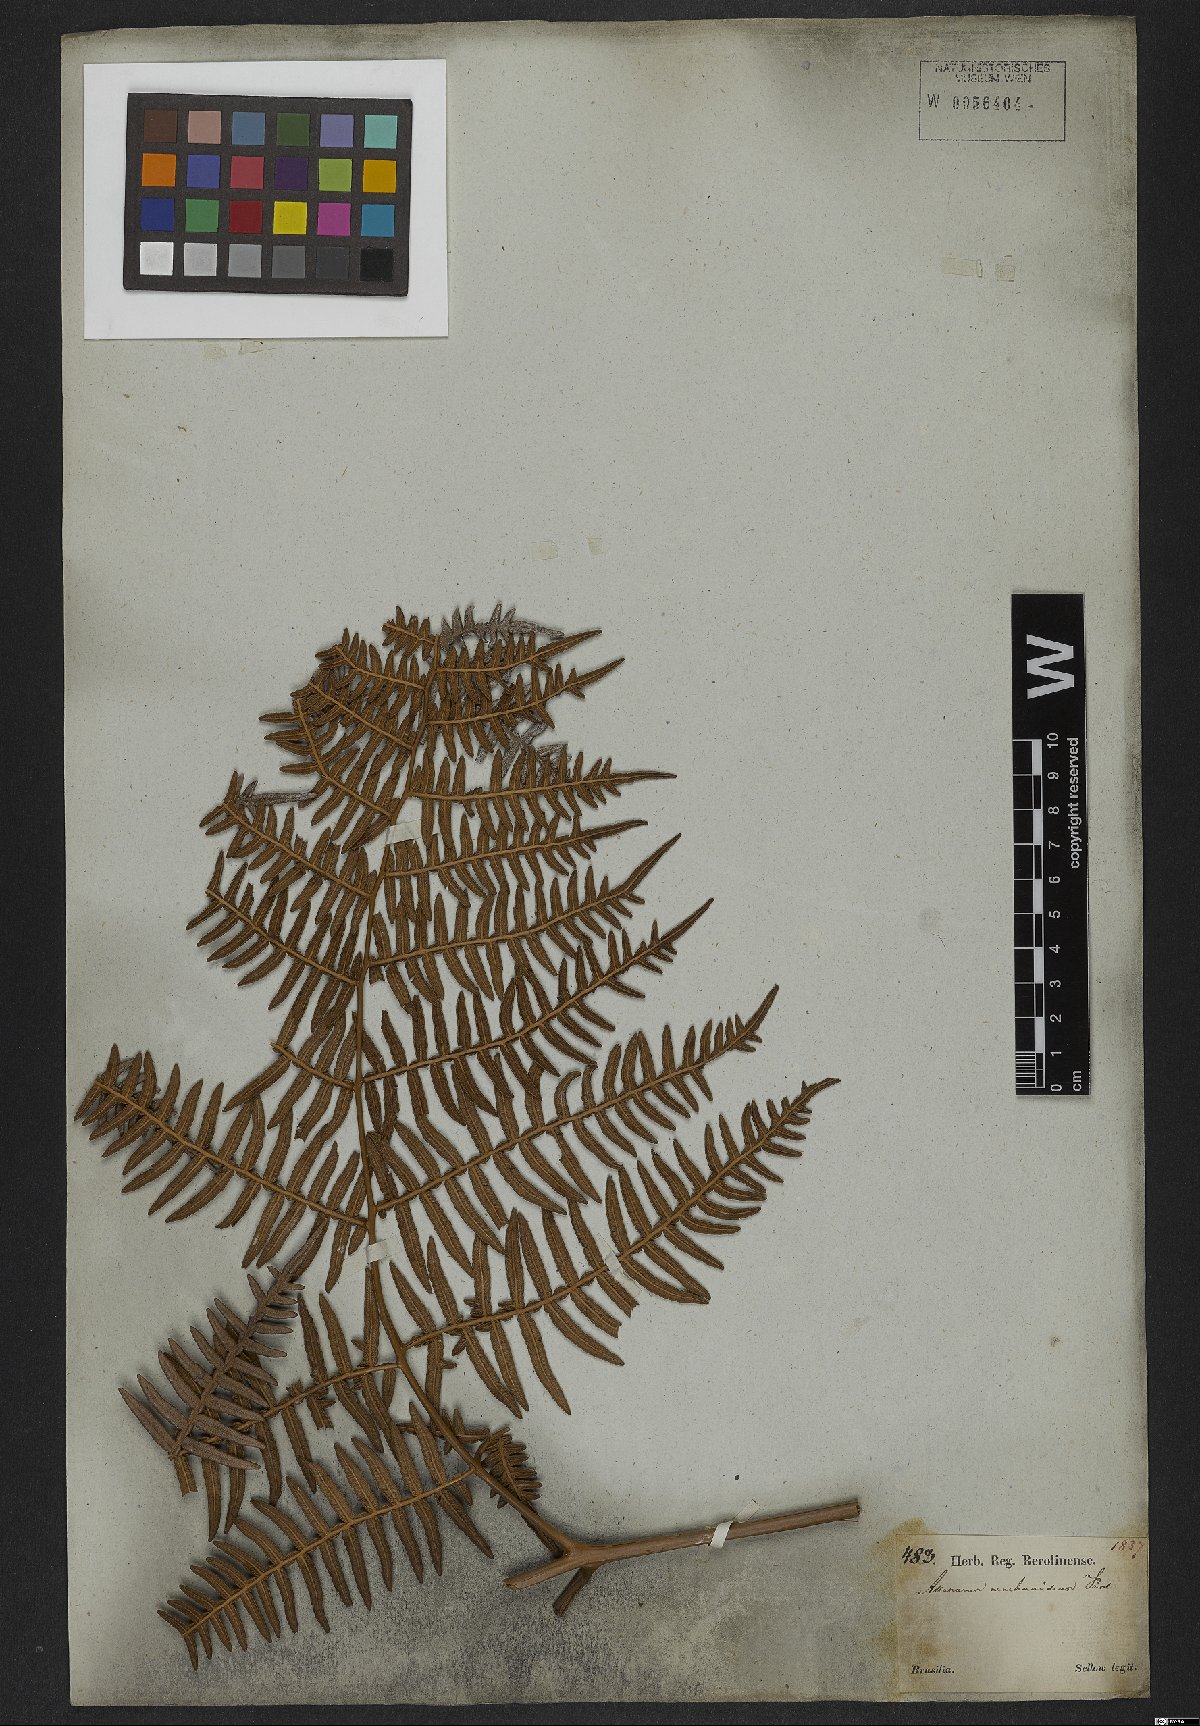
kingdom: Plantae
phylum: Tracheophyta
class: Polypodiopsida
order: Polypodiales
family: Dennstaedtiaceae
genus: Pteridium
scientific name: Pteridium esculentum
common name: Bracken fern
